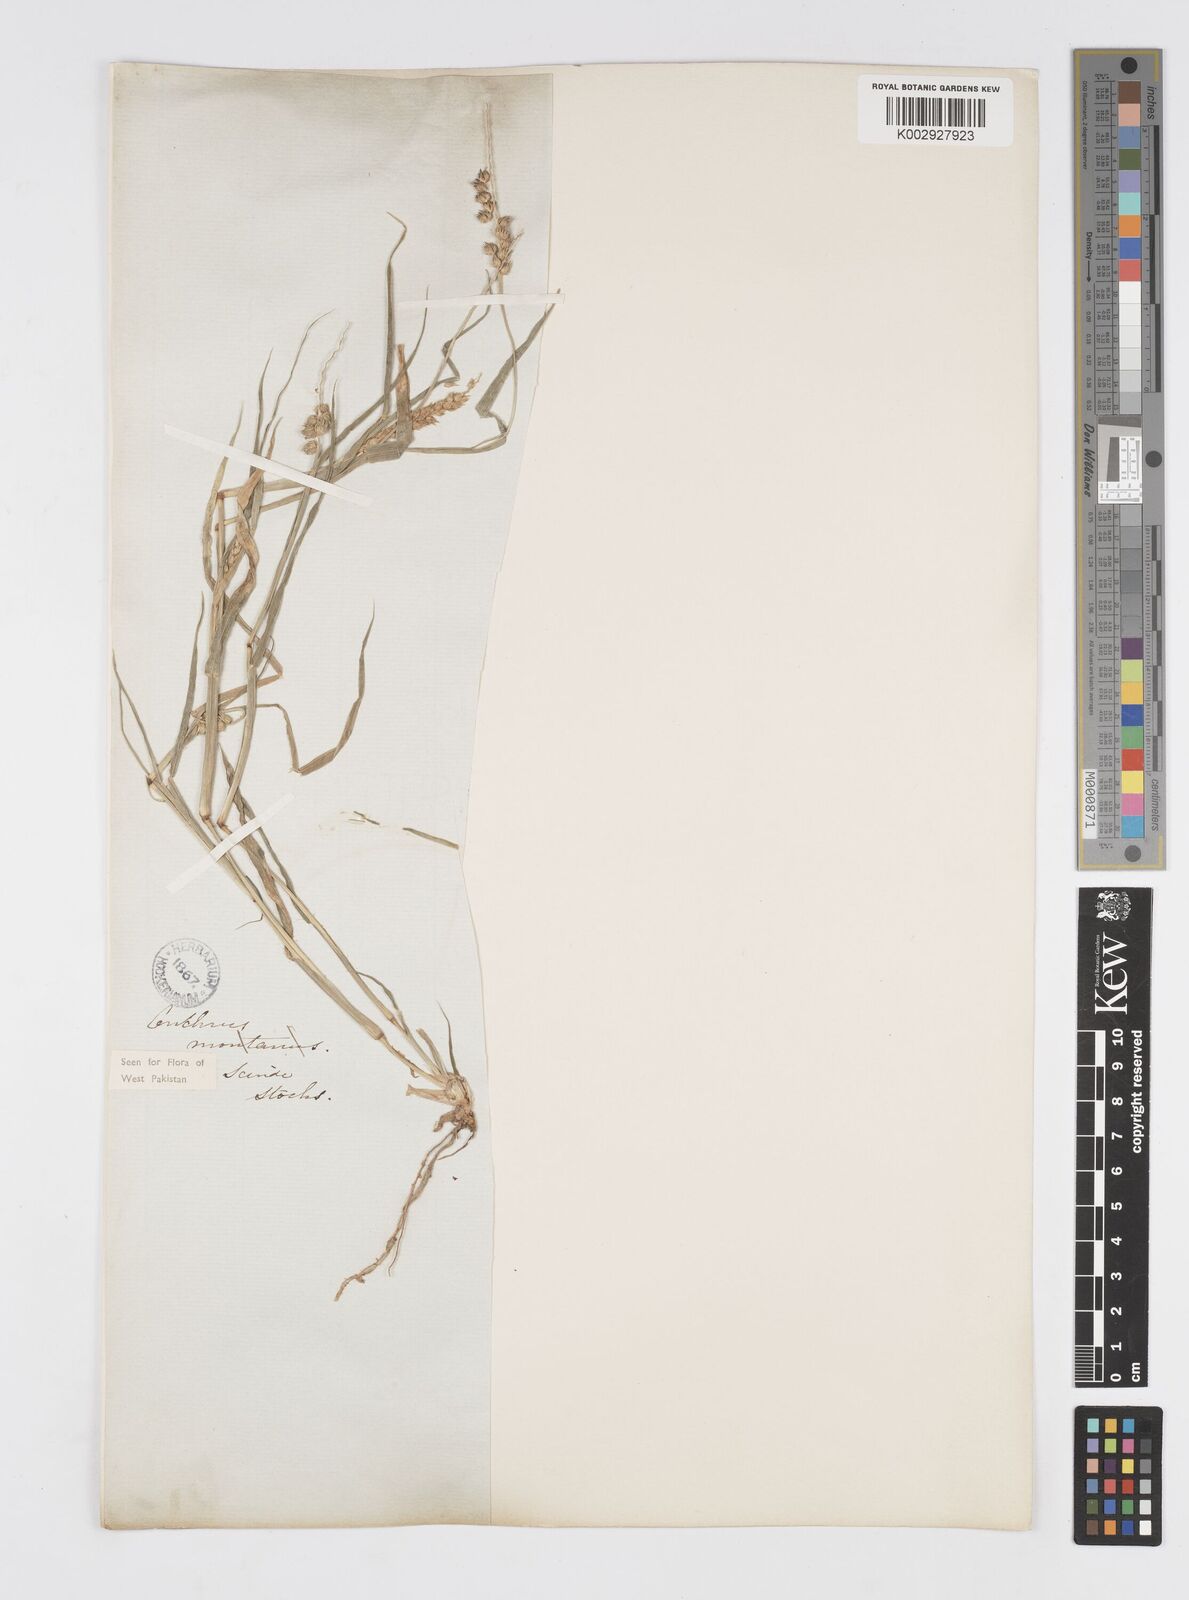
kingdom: Plantae
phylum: Tracheophyta
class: Liliopsida
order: Poales
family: Poaceae
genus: Cenchrus
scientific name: Cenchrus setigerus
